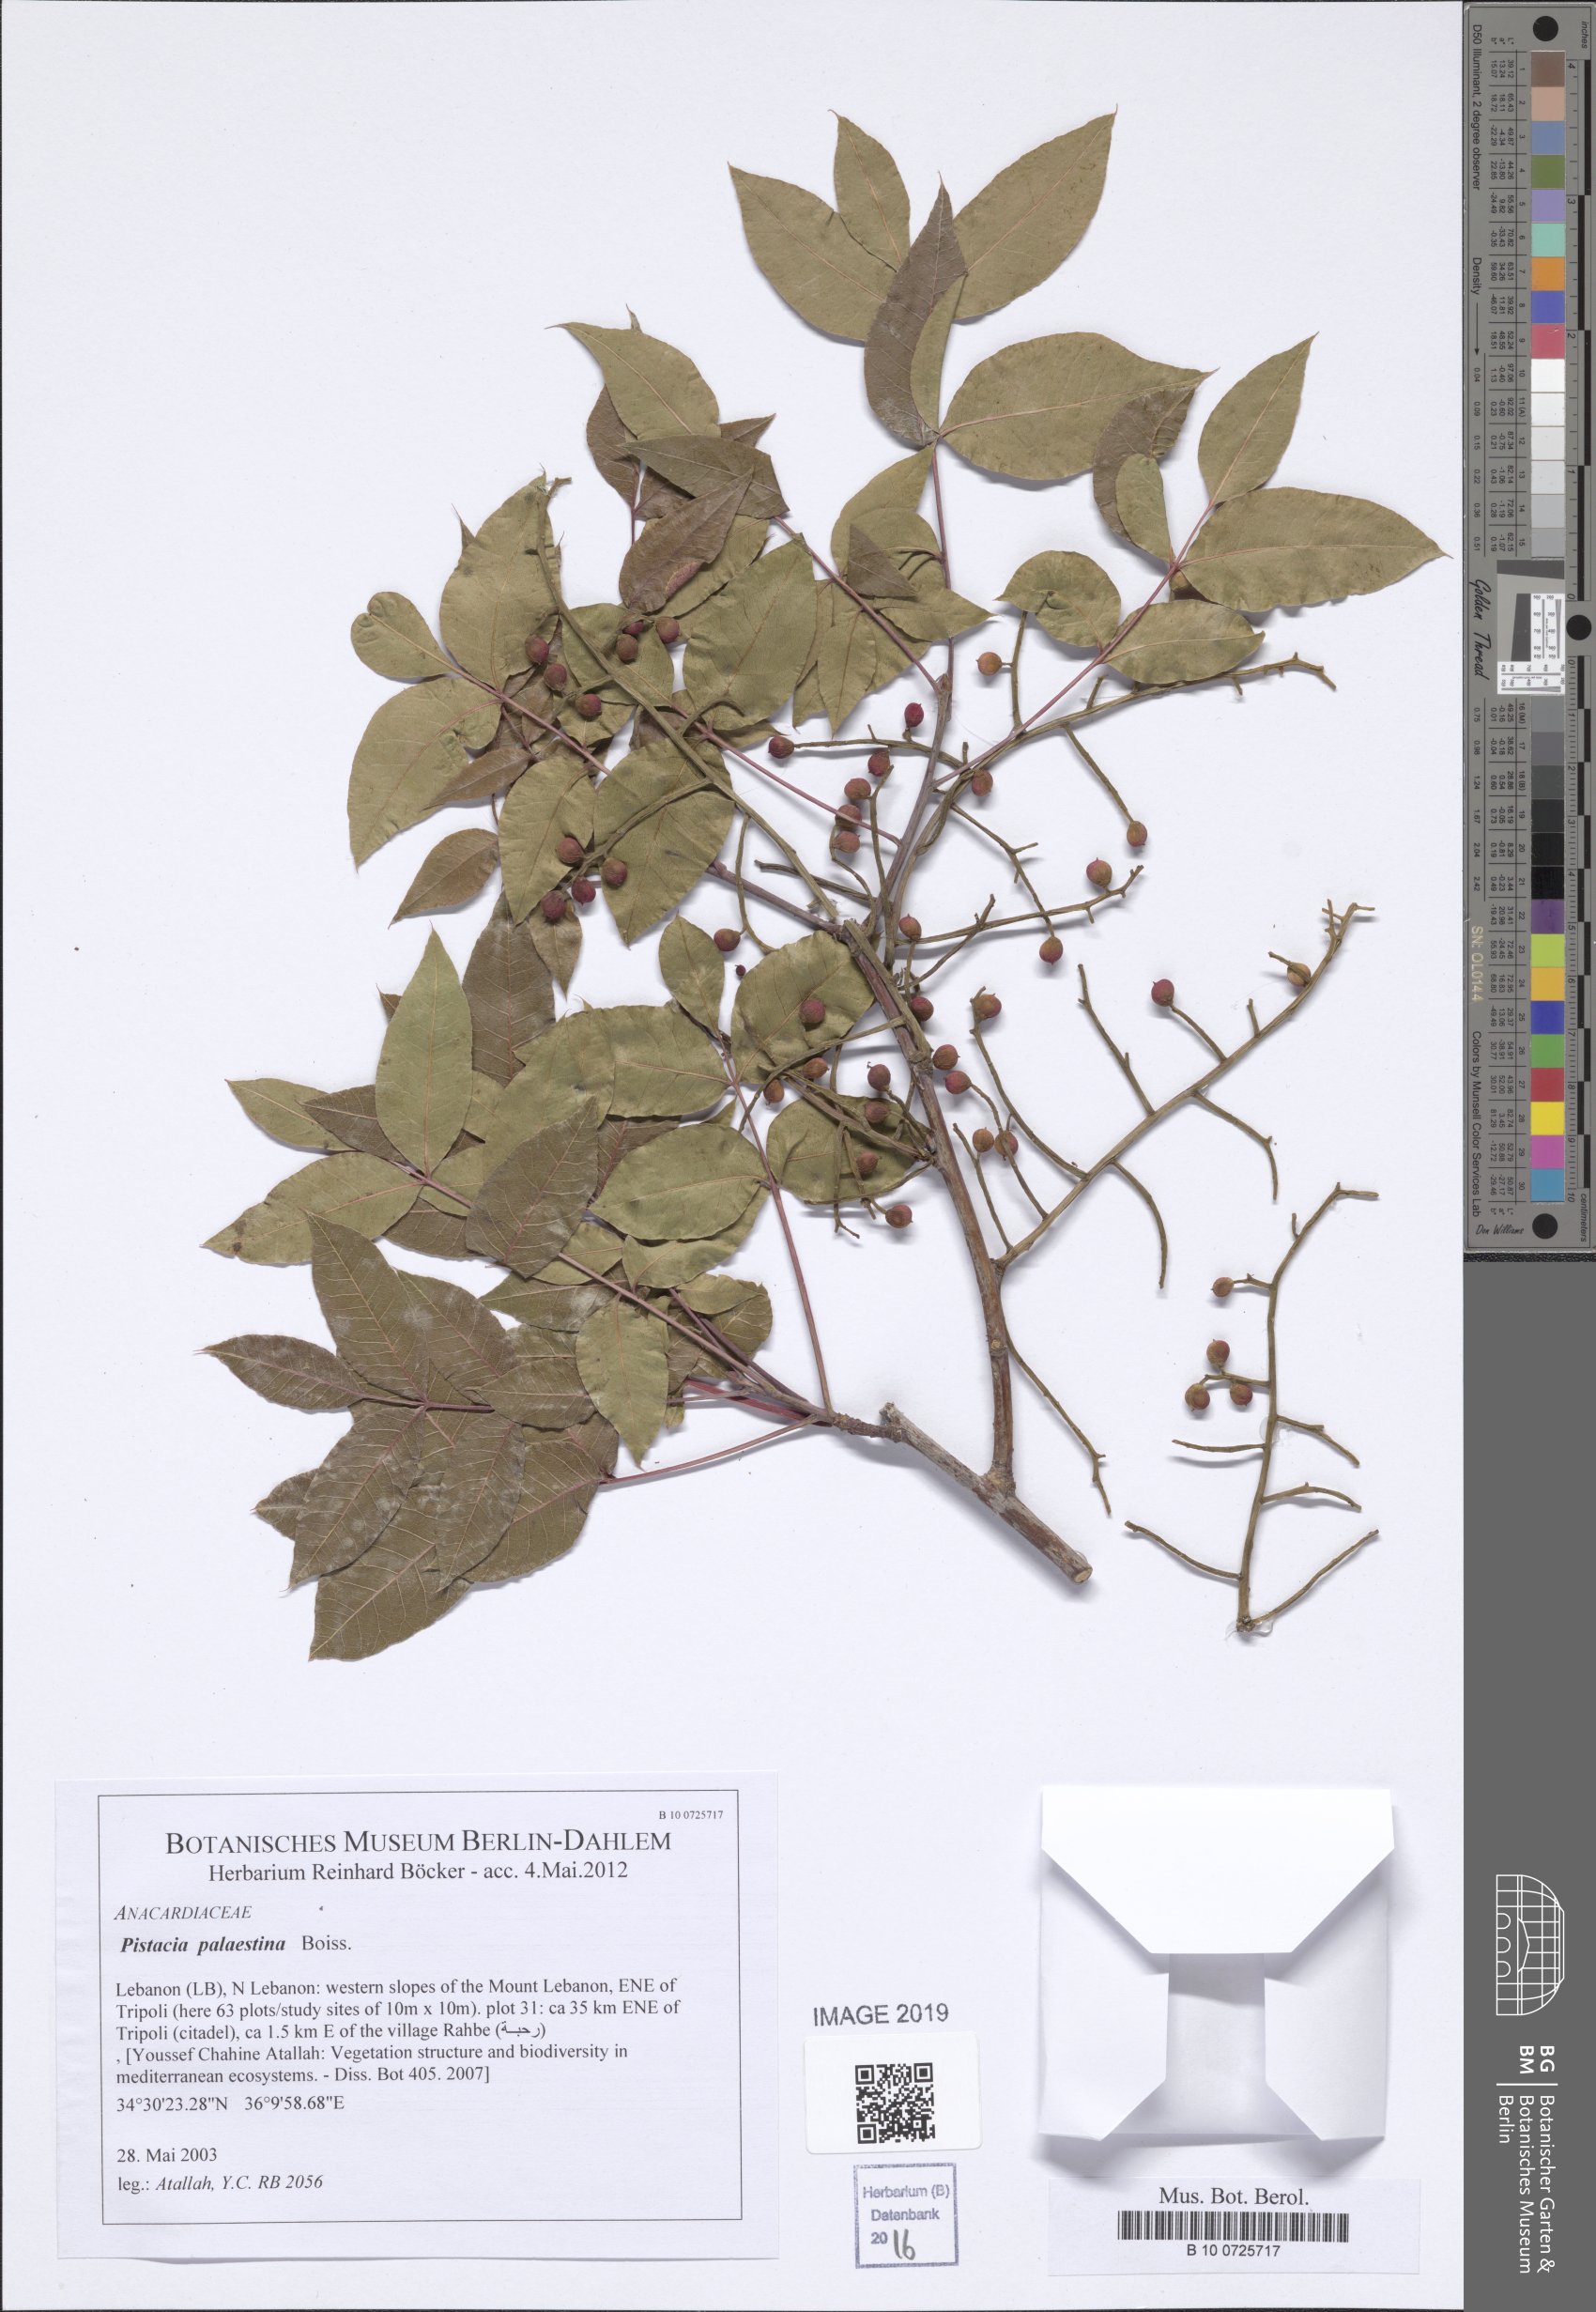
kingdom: Plantae
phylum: Tracheophyta
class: Magnoliopsida
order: Sapindales
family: Anacardiaceae
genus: Pistacia
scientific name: Pistacia terebinthus
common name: Terebinth
